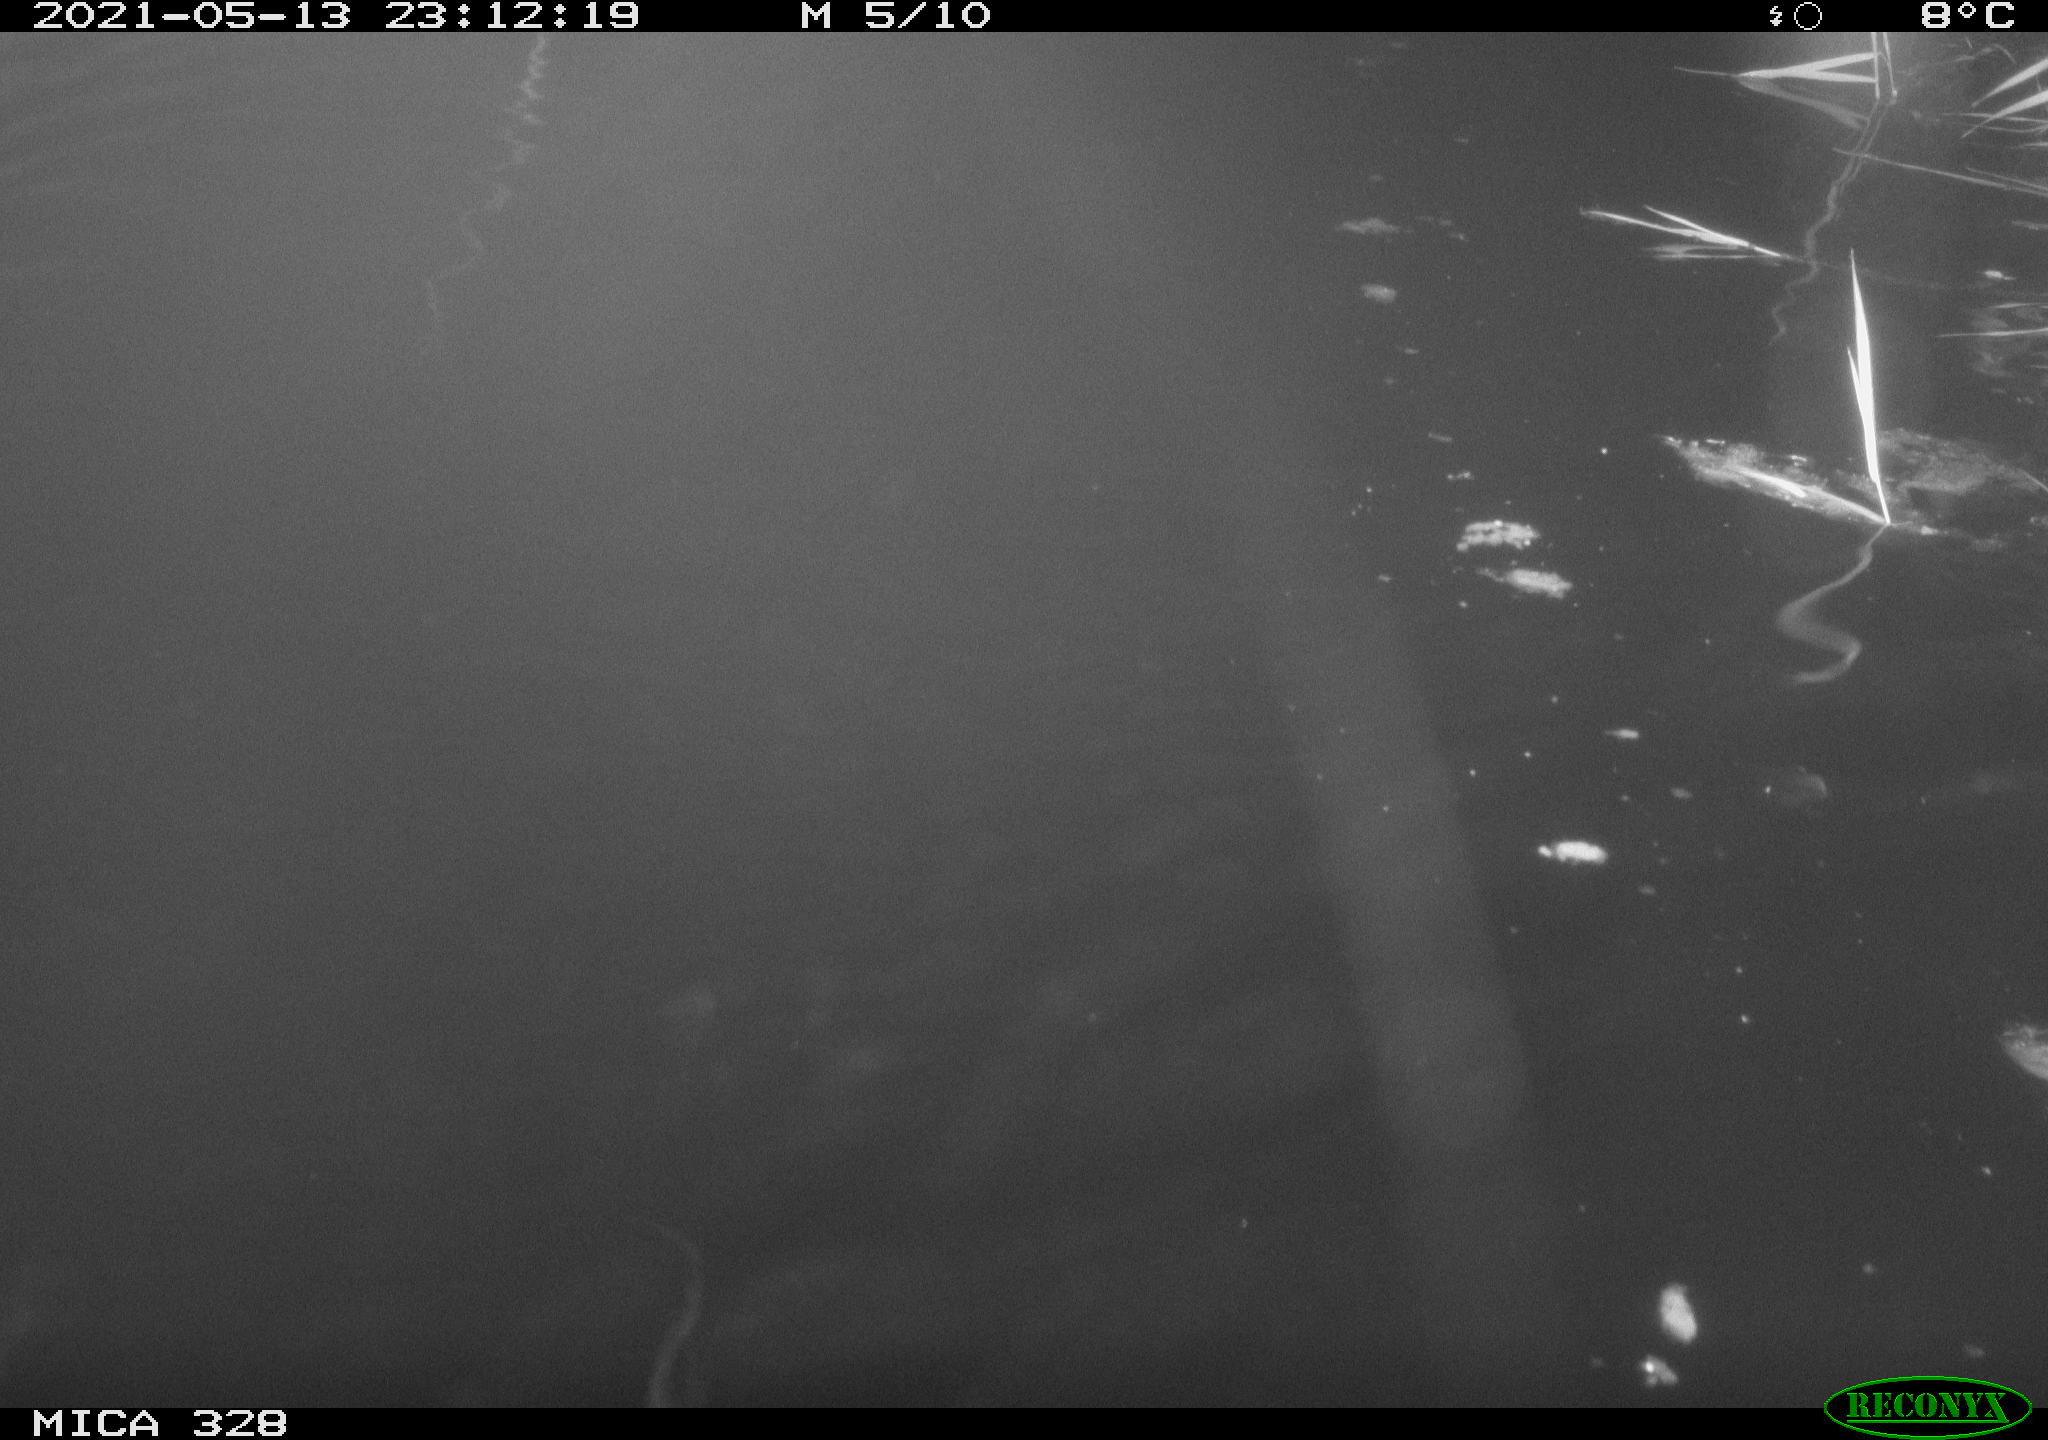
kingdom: Animalia
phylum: Chordata
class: Mammalia
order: Rodentia
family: Cricetidae
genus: Ondatra
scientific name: Ondatra zibethicus
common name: Muskrat
